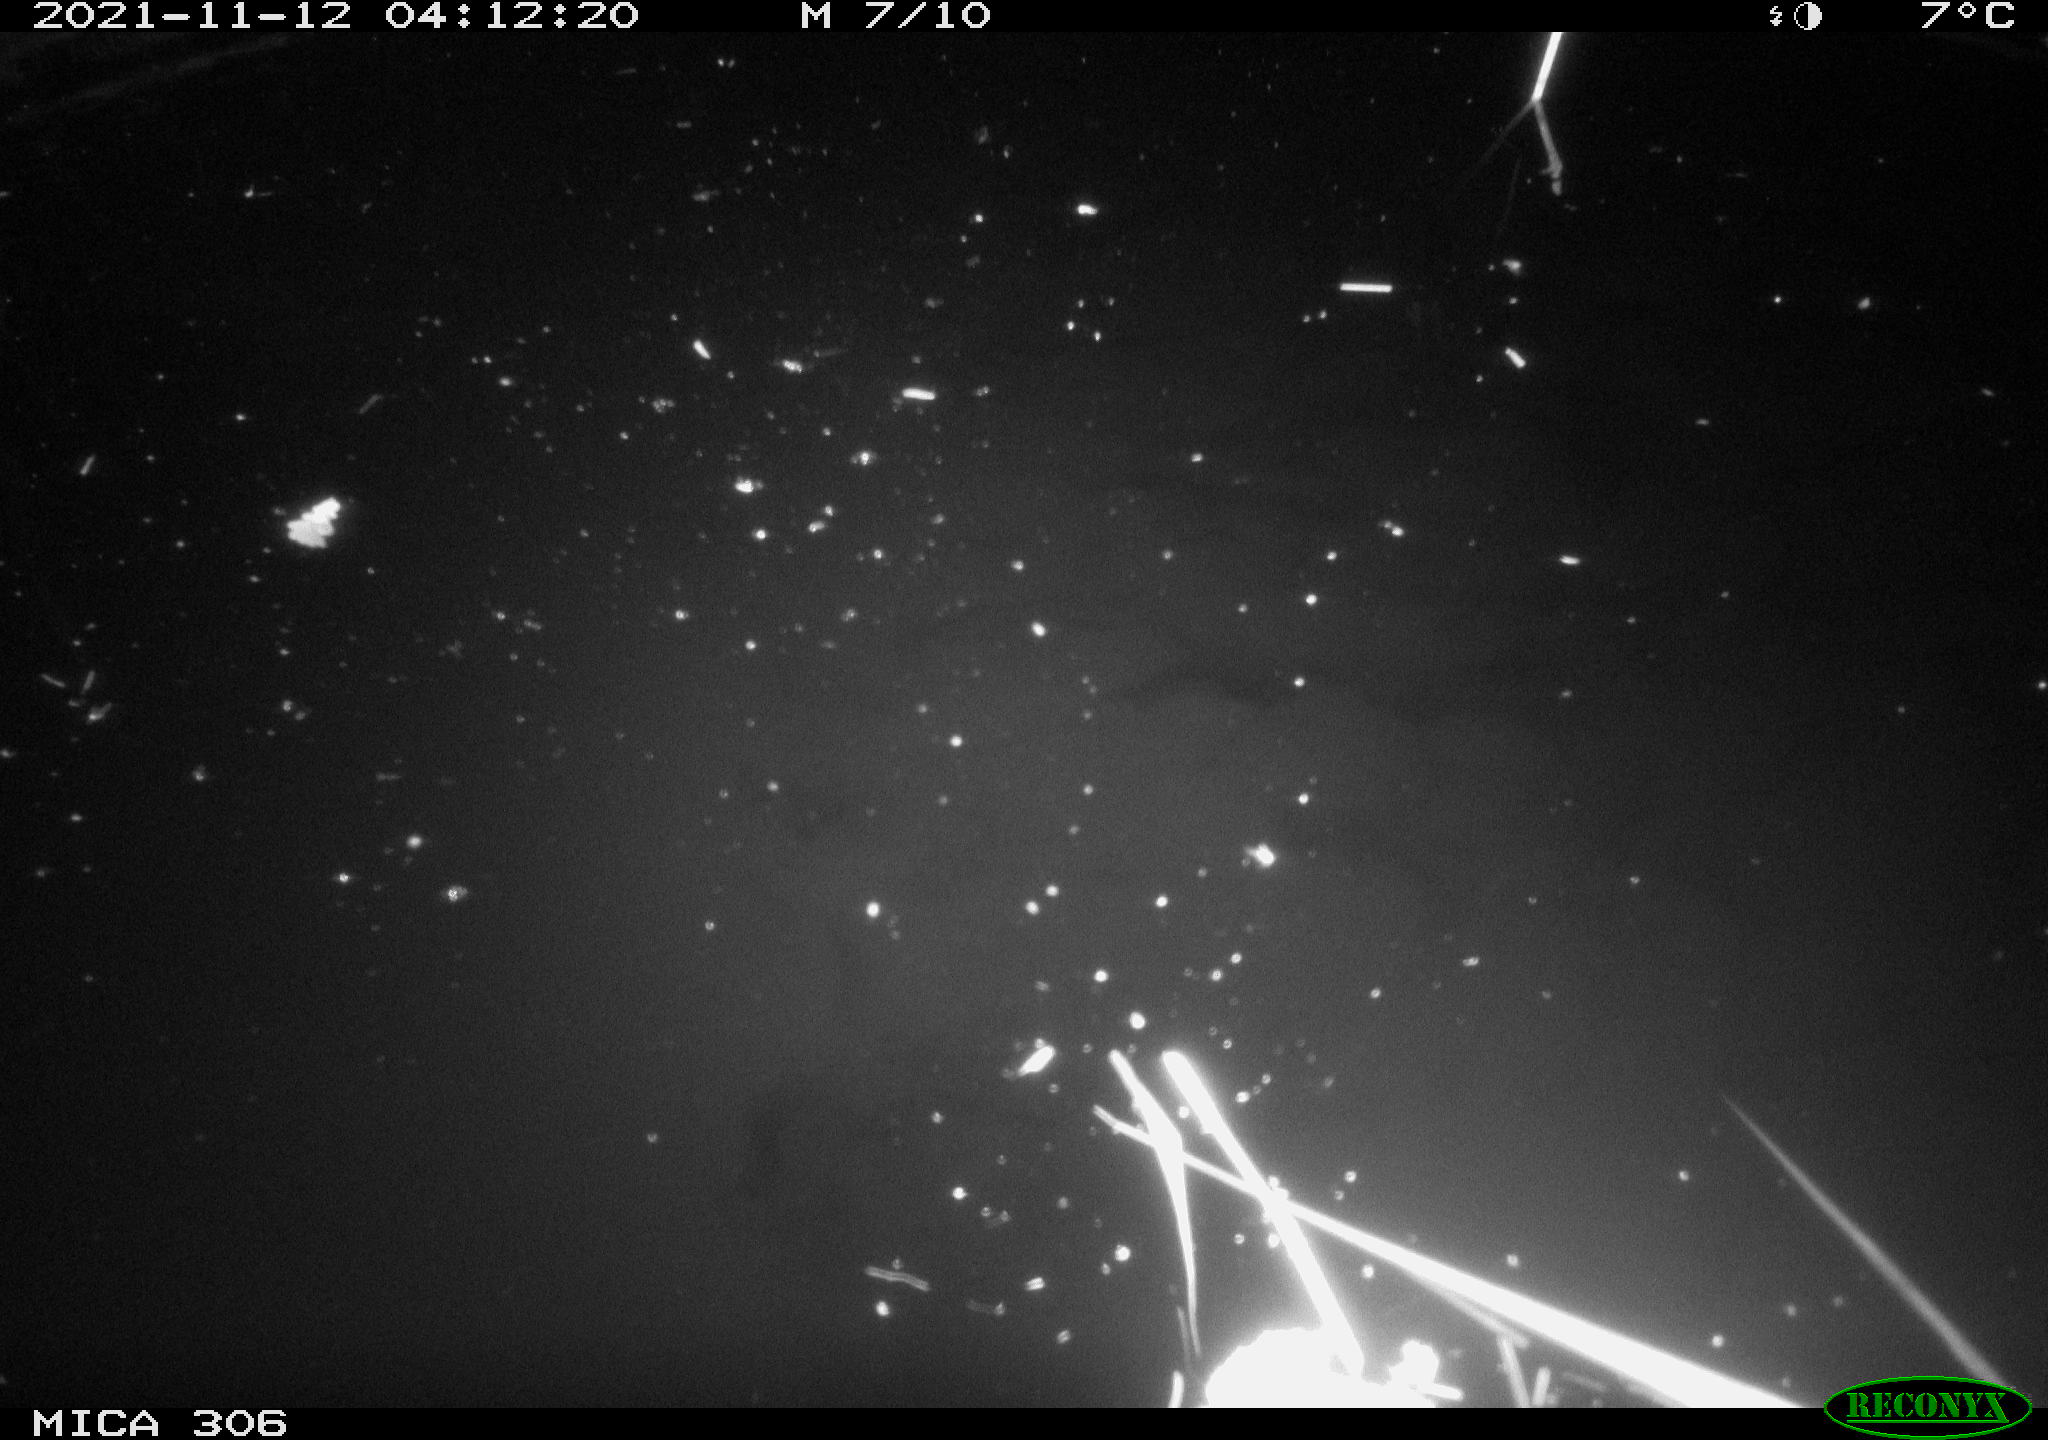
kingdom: Animalia
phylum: Chordata
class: Mammalia
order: Rodentia
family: Muridae
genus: Rattus
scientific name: Rattus norvegicus
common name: Brown rat
